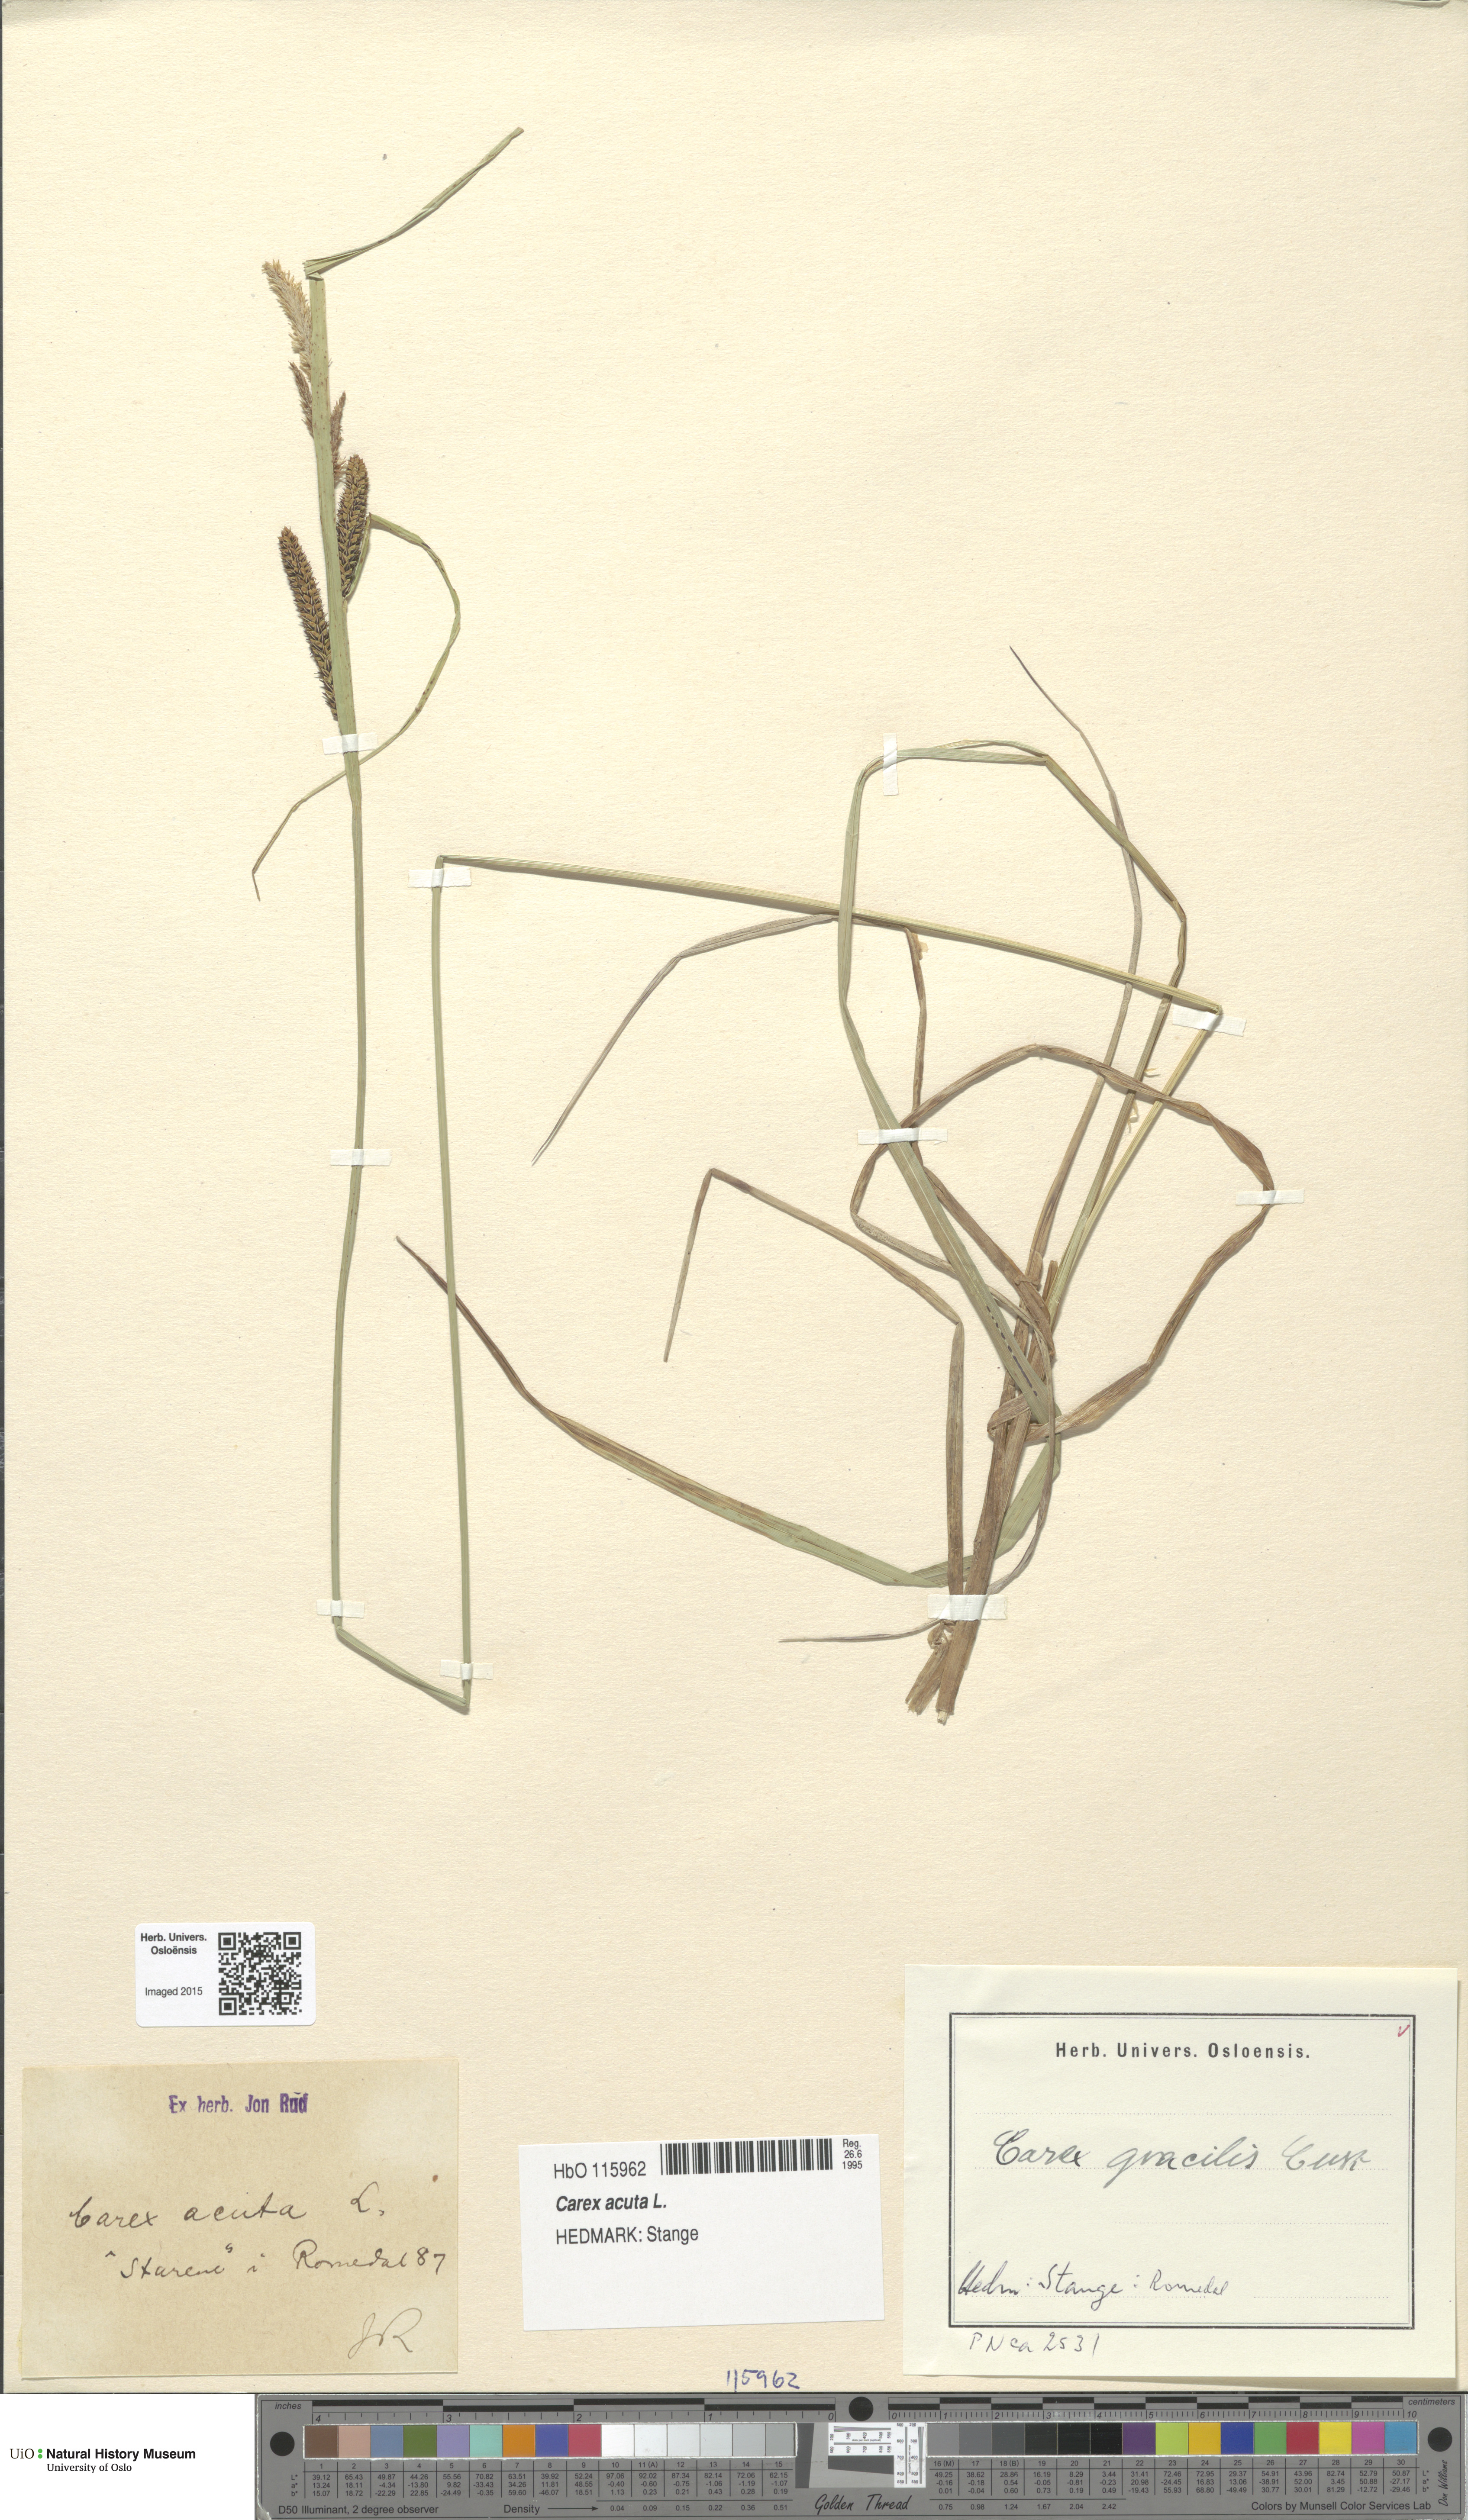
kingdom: Plantae
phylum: Tracheophyta
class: Liliopsida
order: Poales
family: Cyperaceae
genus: Carex
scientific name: Carex acuta
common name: Slender tufted-sedge
